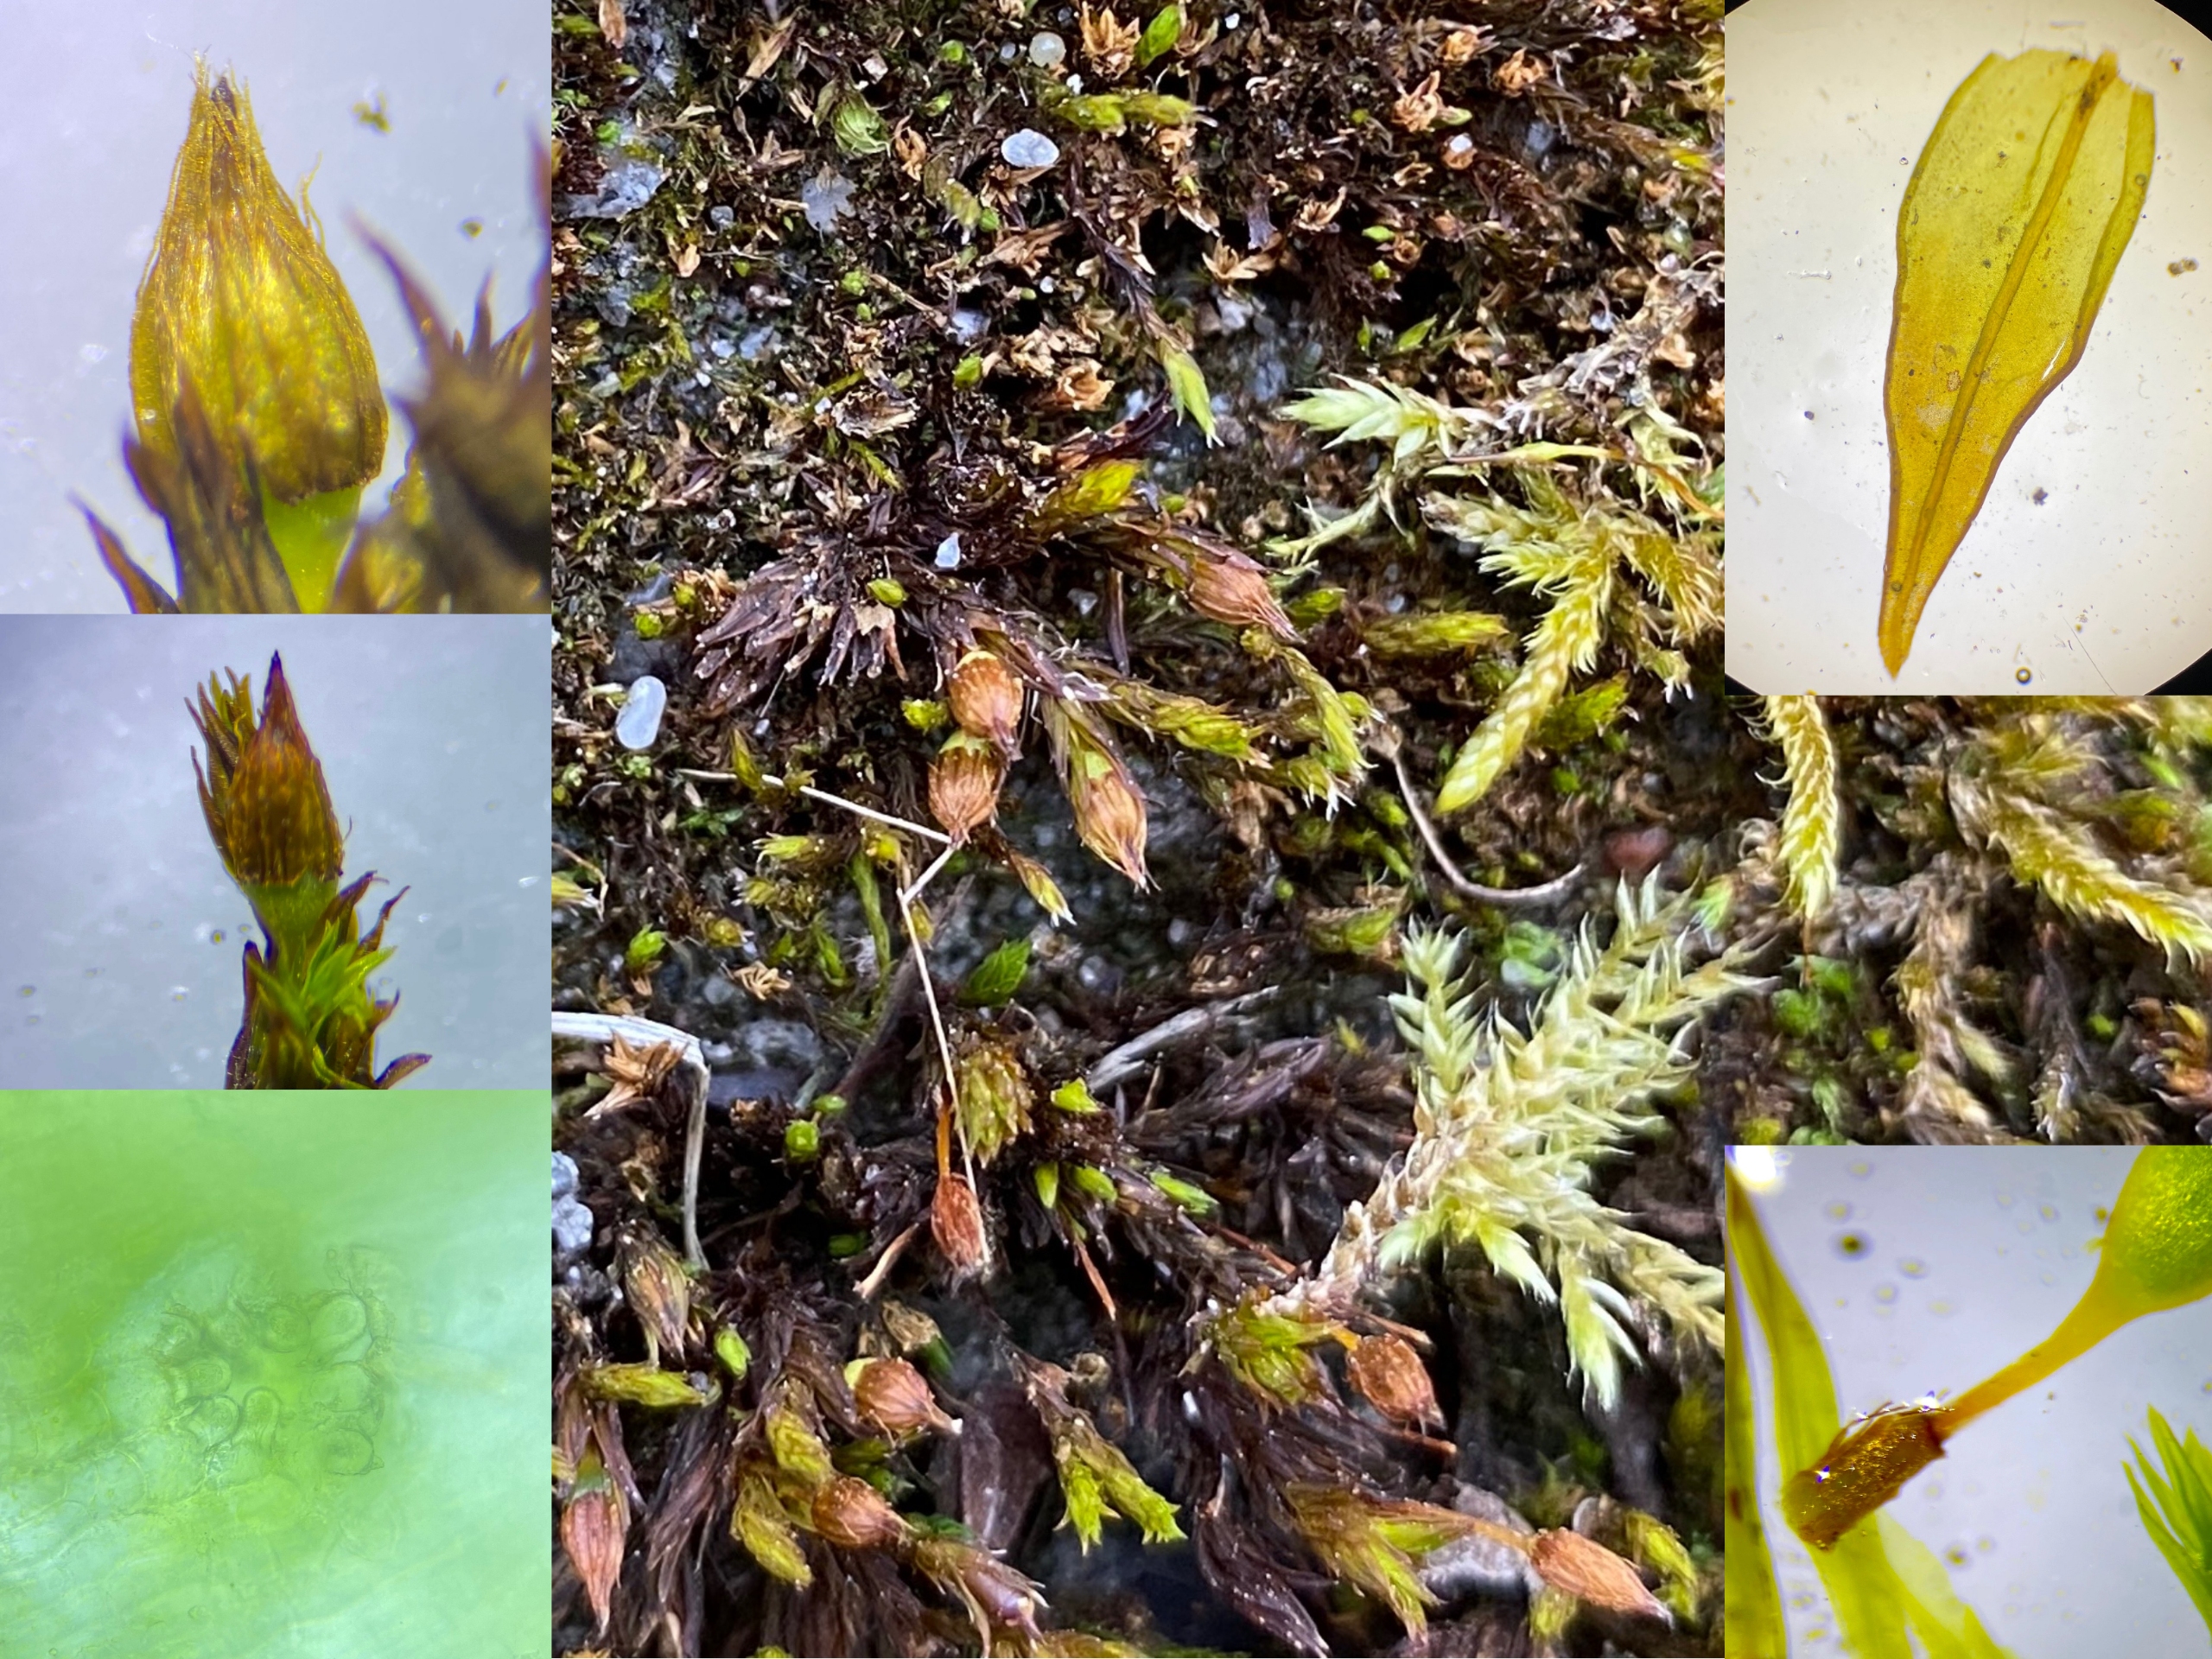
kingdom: Plantae
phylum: Bryophyta
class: Bryopsida
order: Orthotrichales
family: Orthotrichaceae
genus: Orthotrichum
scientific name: Orthotrichum anomalum
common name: Mørk furehætte
